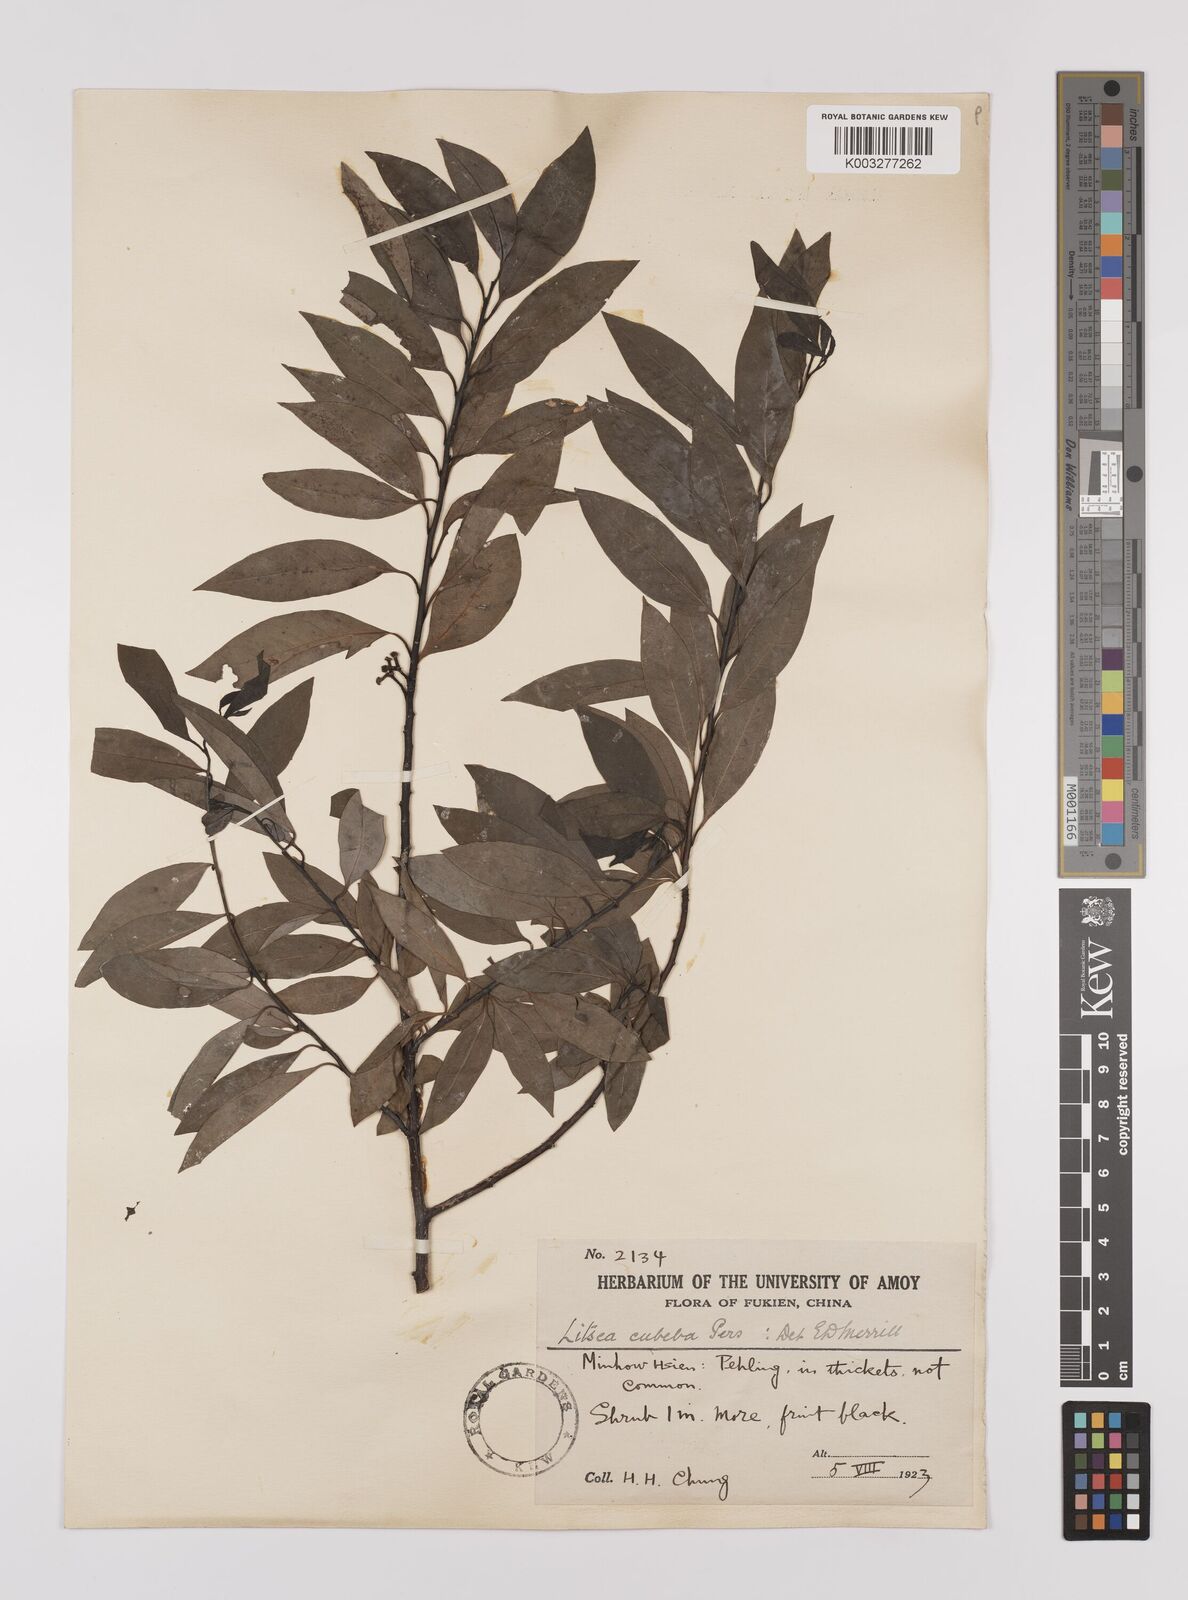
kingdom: Plantae
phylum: Tracheophyta
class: Magnoliopsida
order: Laurales
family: Lauraceae
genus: Litsea
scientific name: Litsea cubeba
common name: Mountain-pepper
